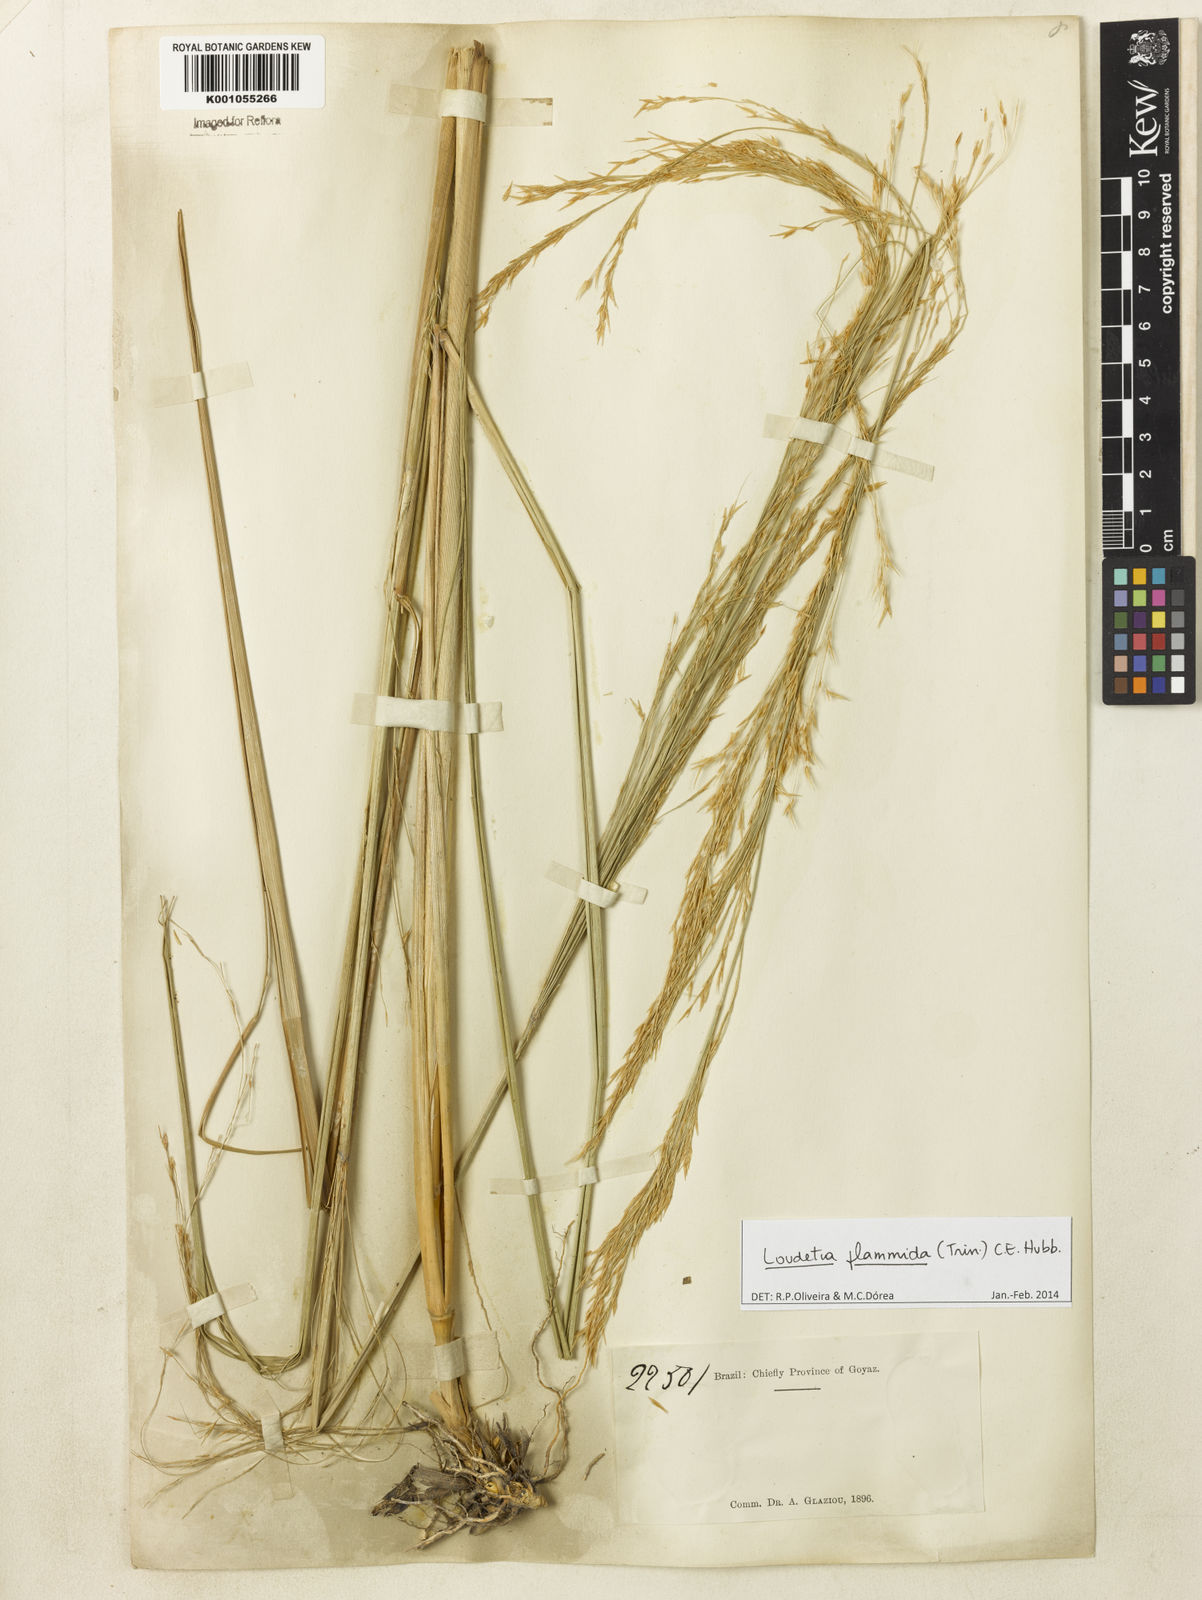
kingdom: Plantae
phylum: Tracheophyta
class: Liliopsida
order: Poales
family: Poaceae
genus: Loudetia
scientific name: Loudetia flammida
